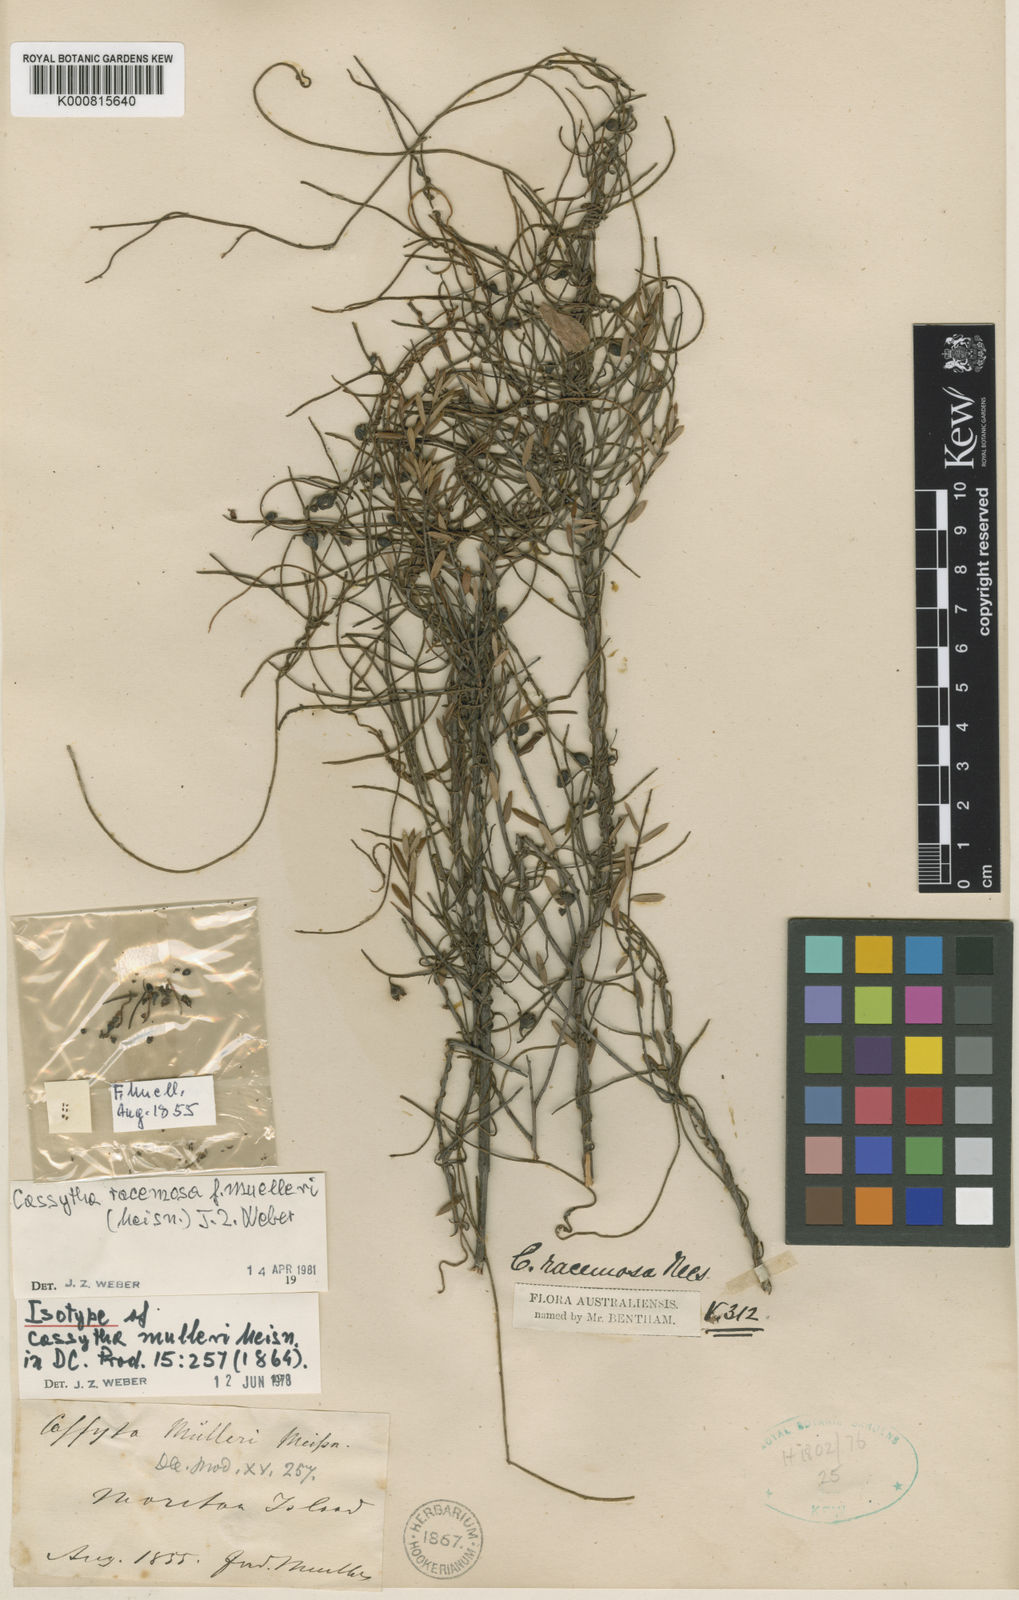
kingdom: Plantae
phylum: Tracheophyta
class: Magnoliopsida
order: Laurales
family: Lauraceae
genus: Cassytha
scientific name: Cassytha muelleri
